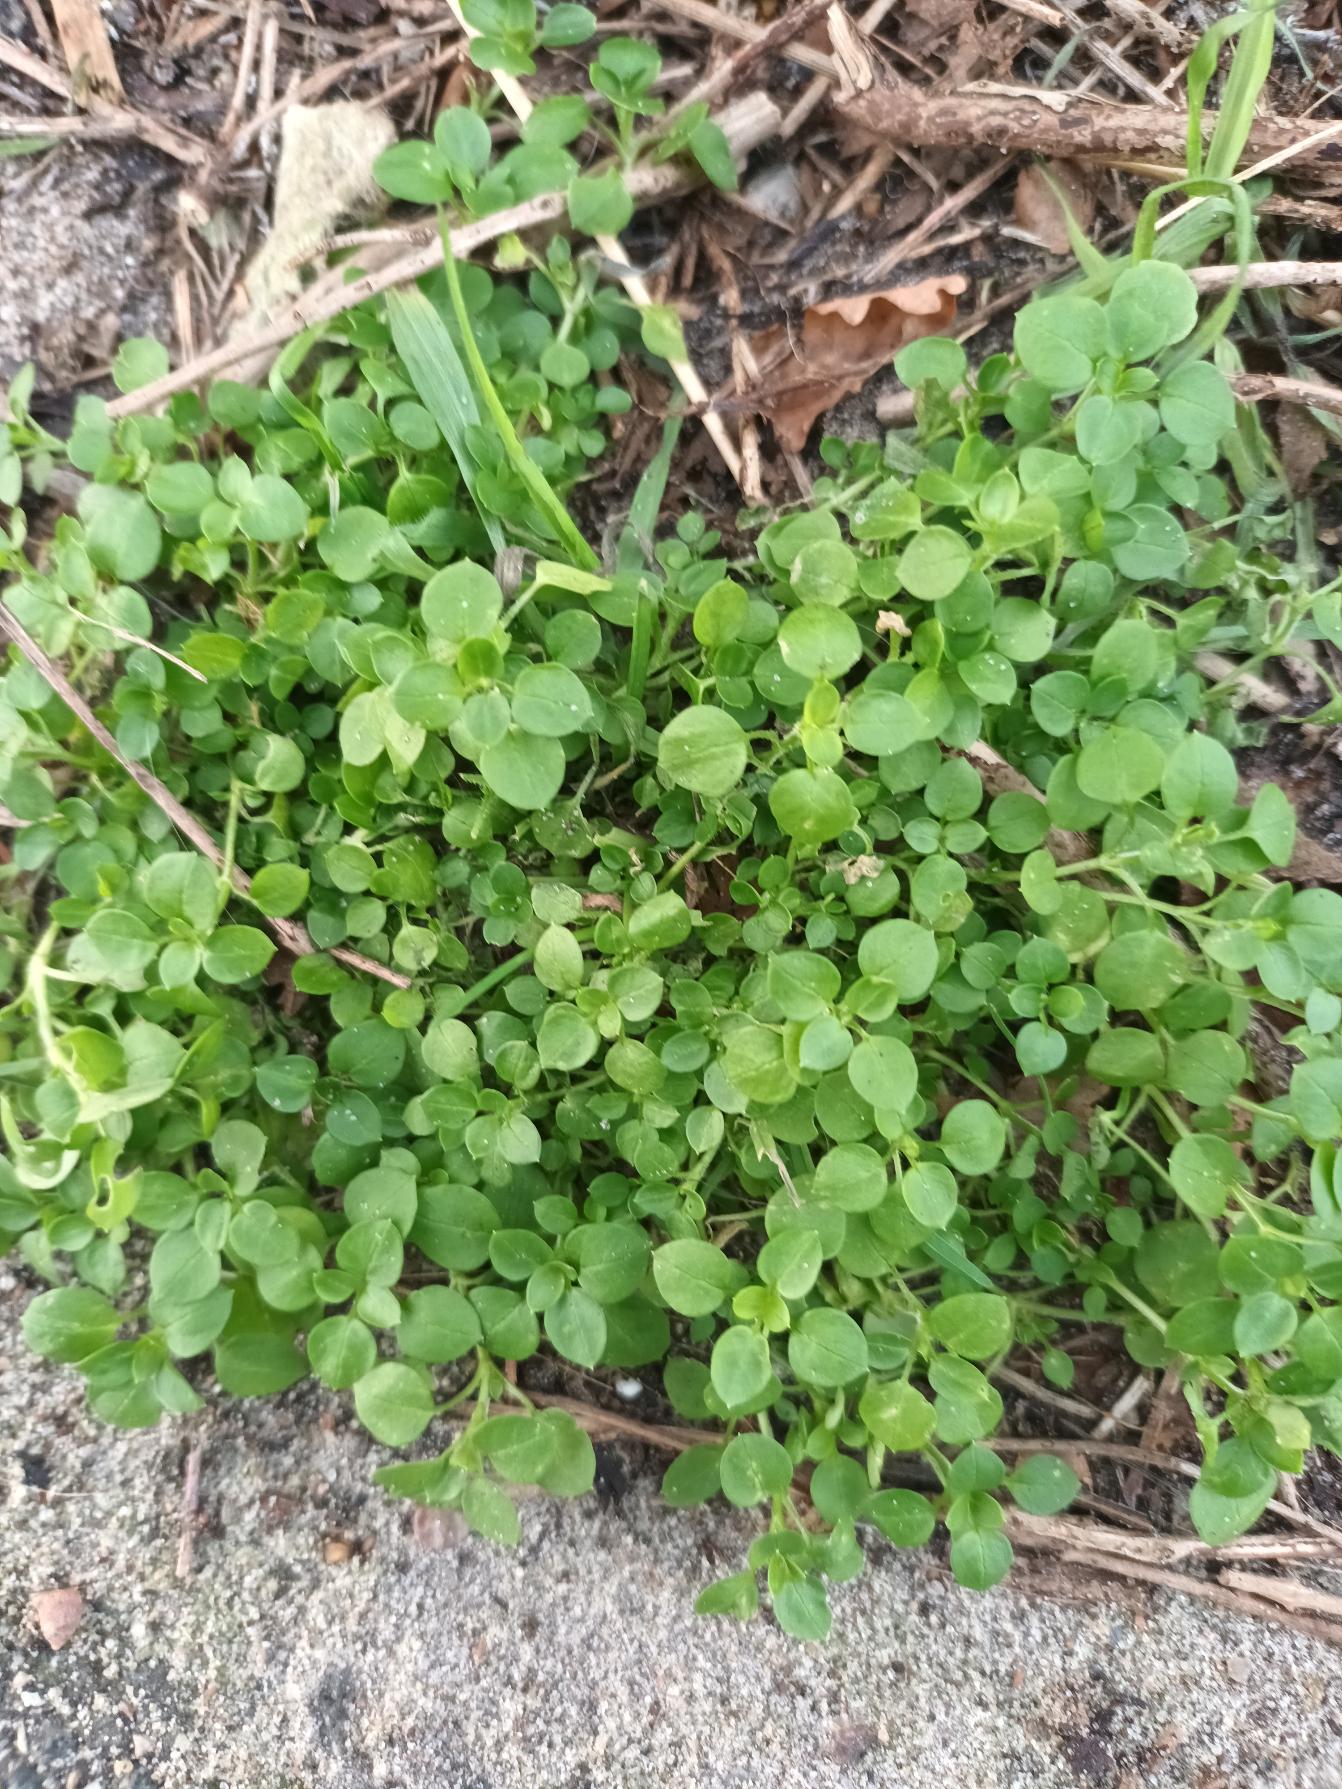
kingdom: Plantae
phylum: Tracheophyta
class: Magnoliopsida
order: Caryophyllales
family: Caryophyllaceae
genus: Stellaria
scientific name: Stellaria media
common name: Almindelig fuglegræs
